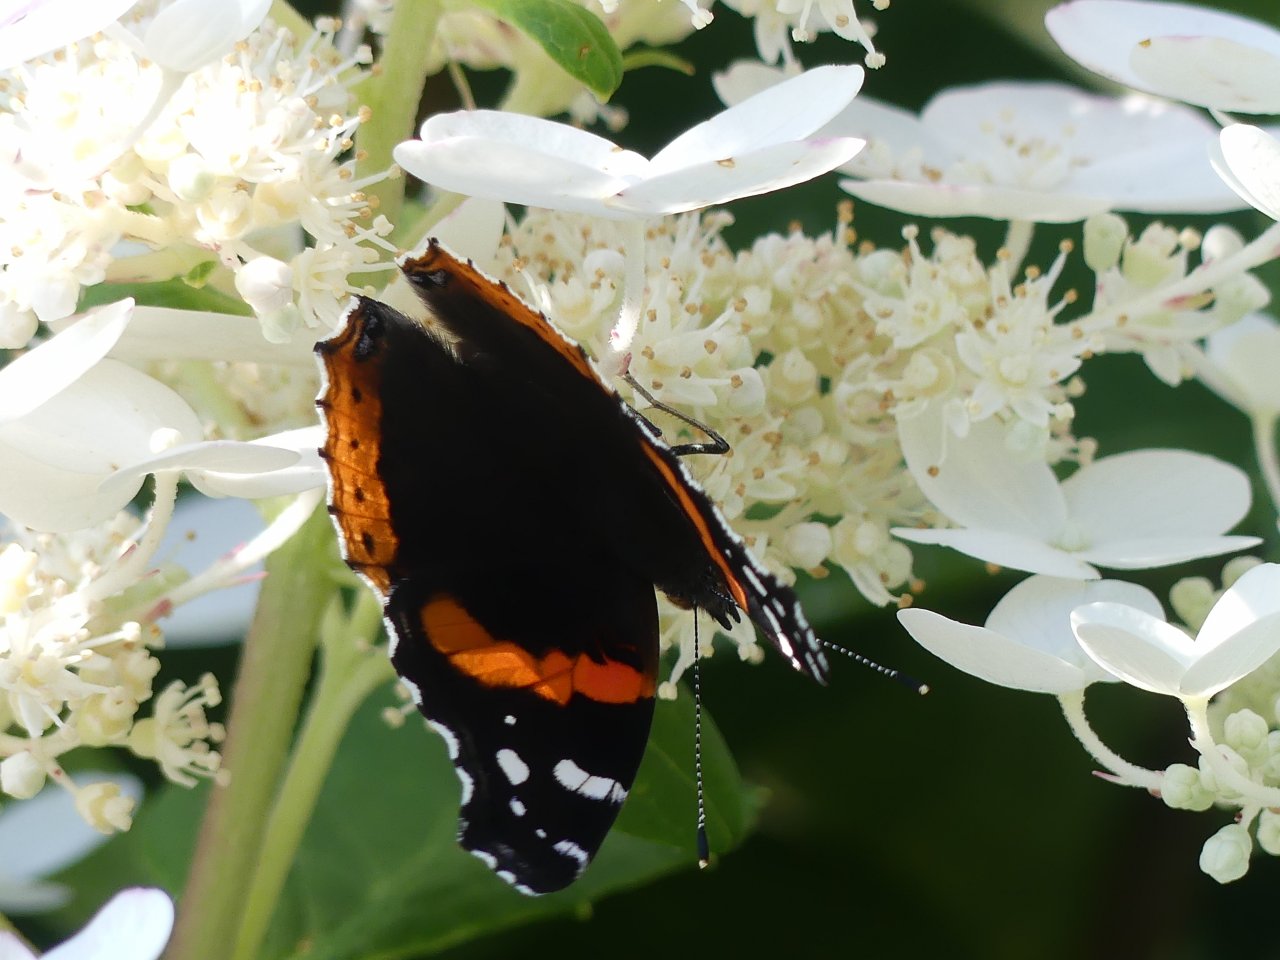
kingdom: Animalia
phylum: Arthropoda
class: Insecta
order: Lepidoptera
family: Nymphalidae
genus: Vanessa
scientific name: Vanessa atalanta
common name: Red Admiral
